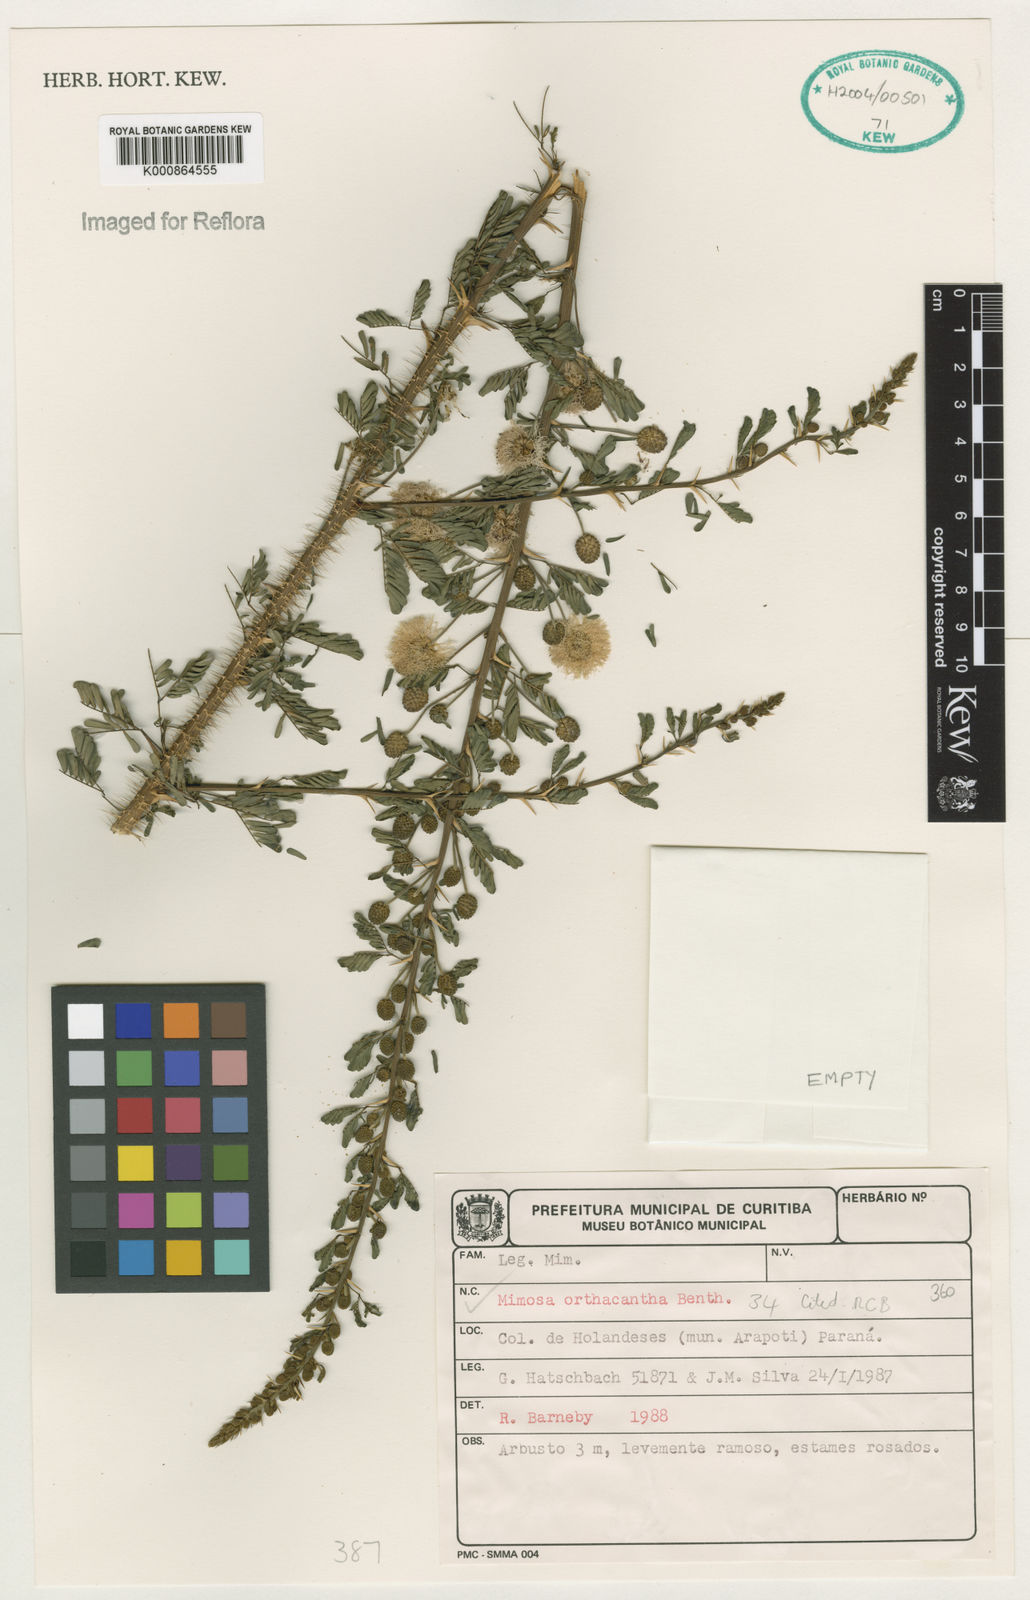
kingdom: Plantae
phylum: Tracheophyta
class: Magnoliopsida
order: Fabales
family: Fabaceae
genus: Mimosa
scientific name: Mimosa orthacantha
